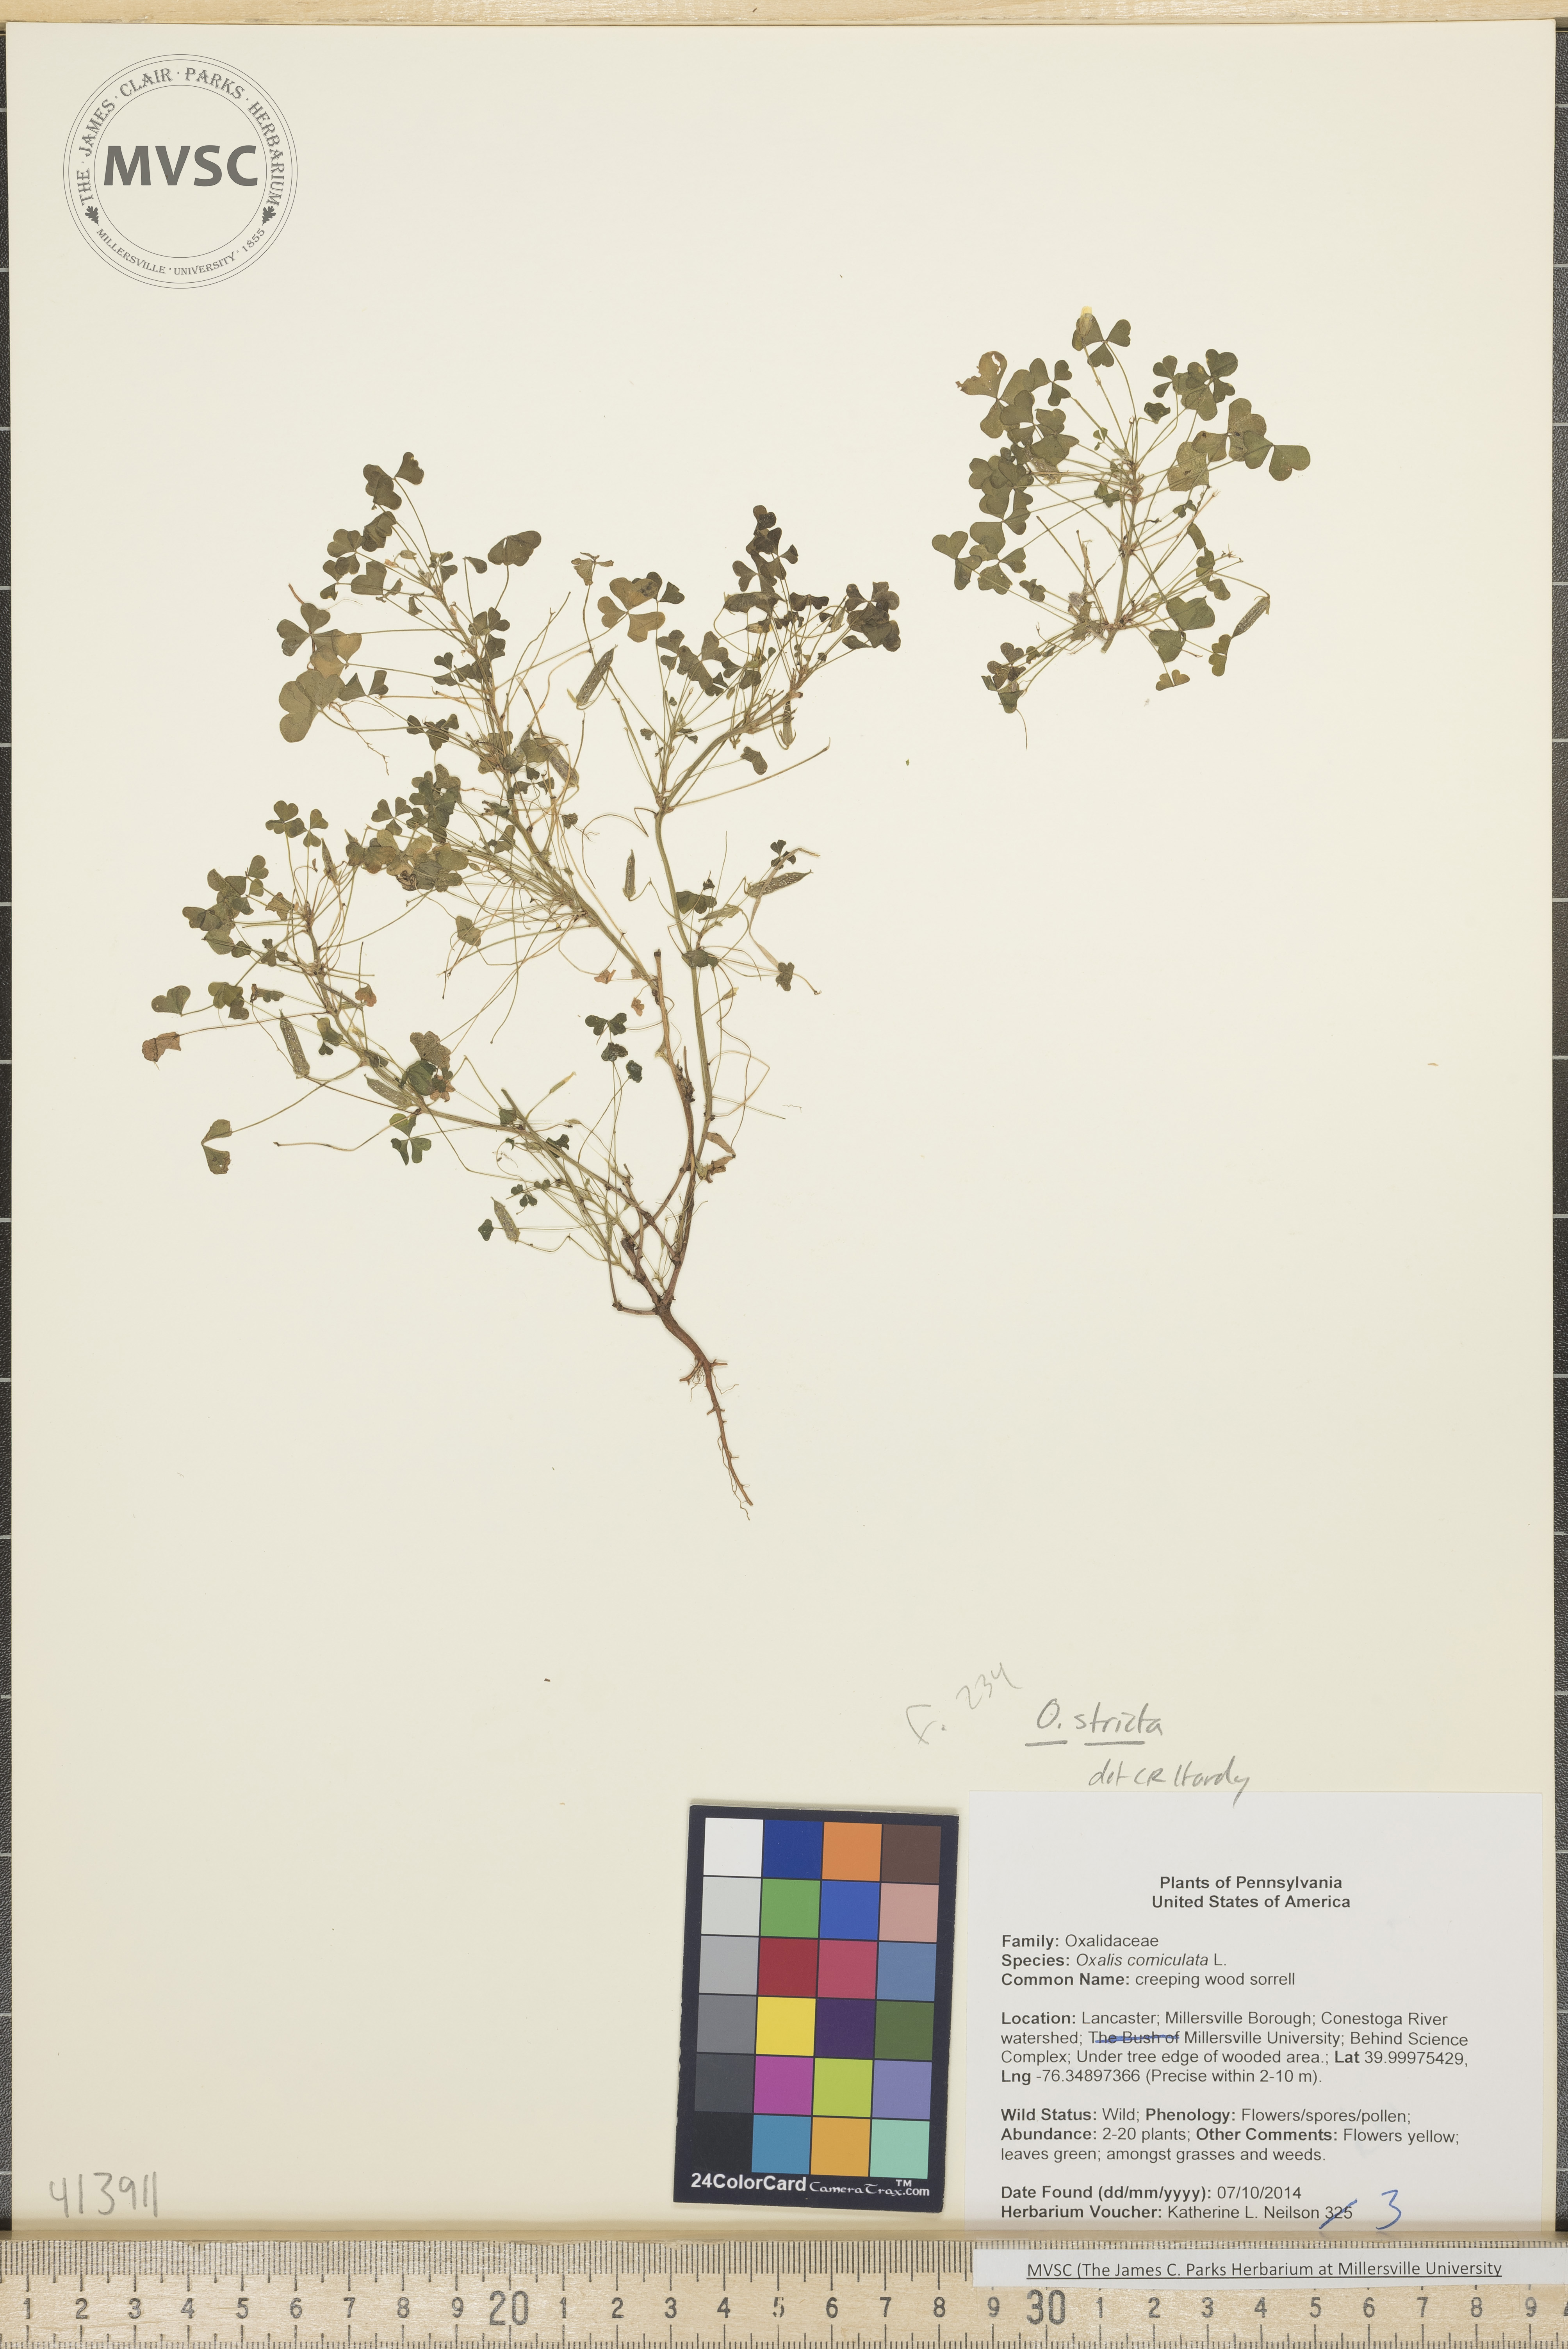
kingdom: Plantae
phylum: Tracheophyta
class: Magnoliopsida
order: Oxalidales
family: Oxalidaceae
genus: Oxalis
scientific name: Oxalis stricta
